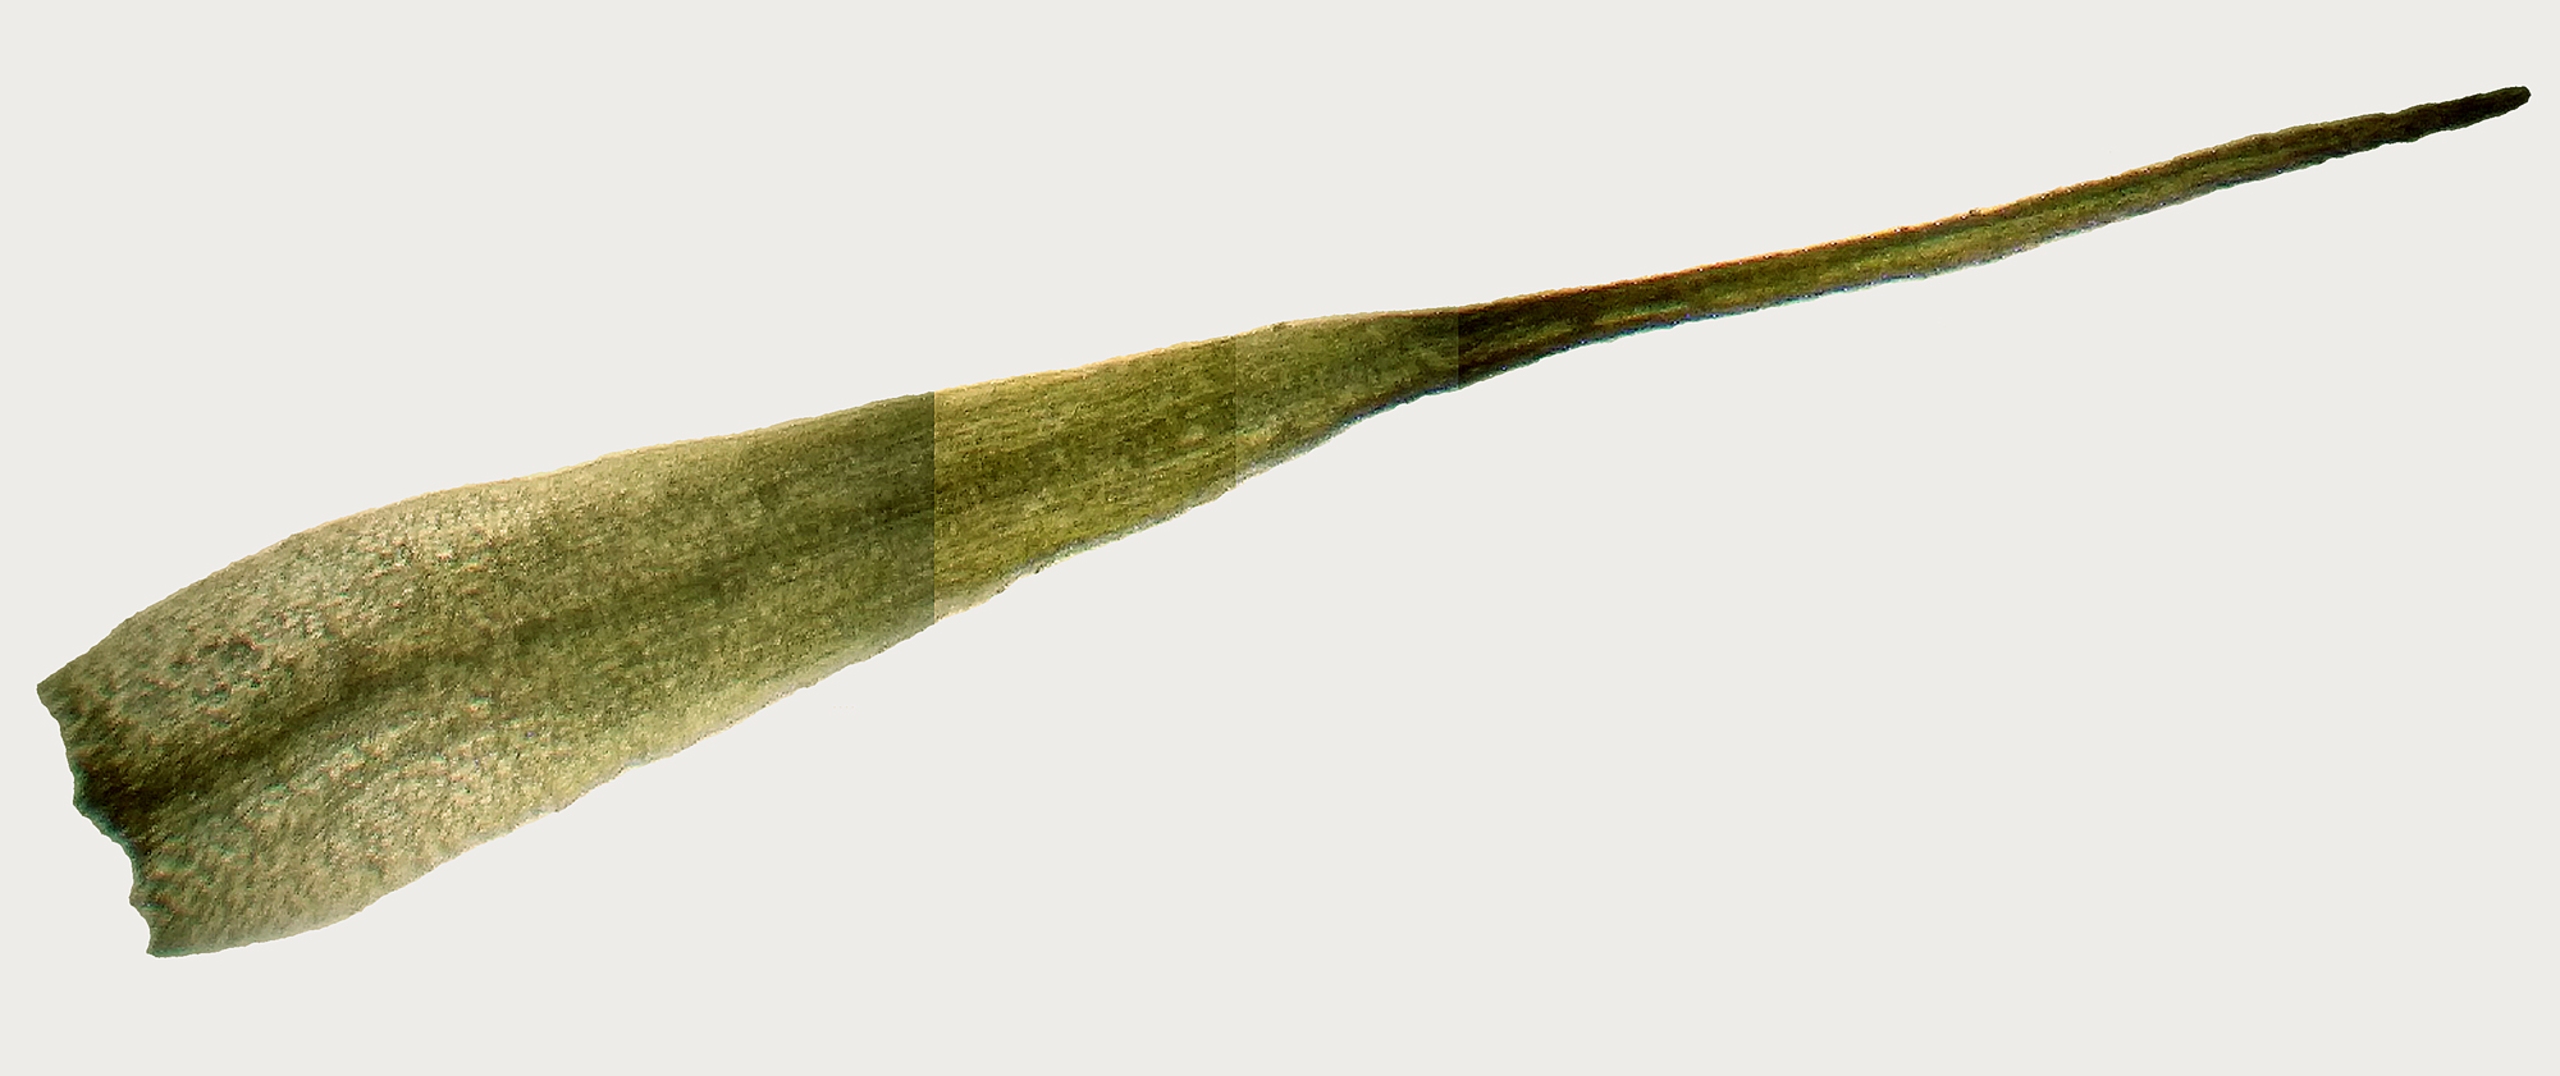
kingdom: Plantae
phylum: Bryophyta
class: Bryopsida
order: Dicranales
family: Ditrichaceae
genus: Pleuridium
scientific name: Pleuridium acuminatum
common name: Siddende sylbladsmos
